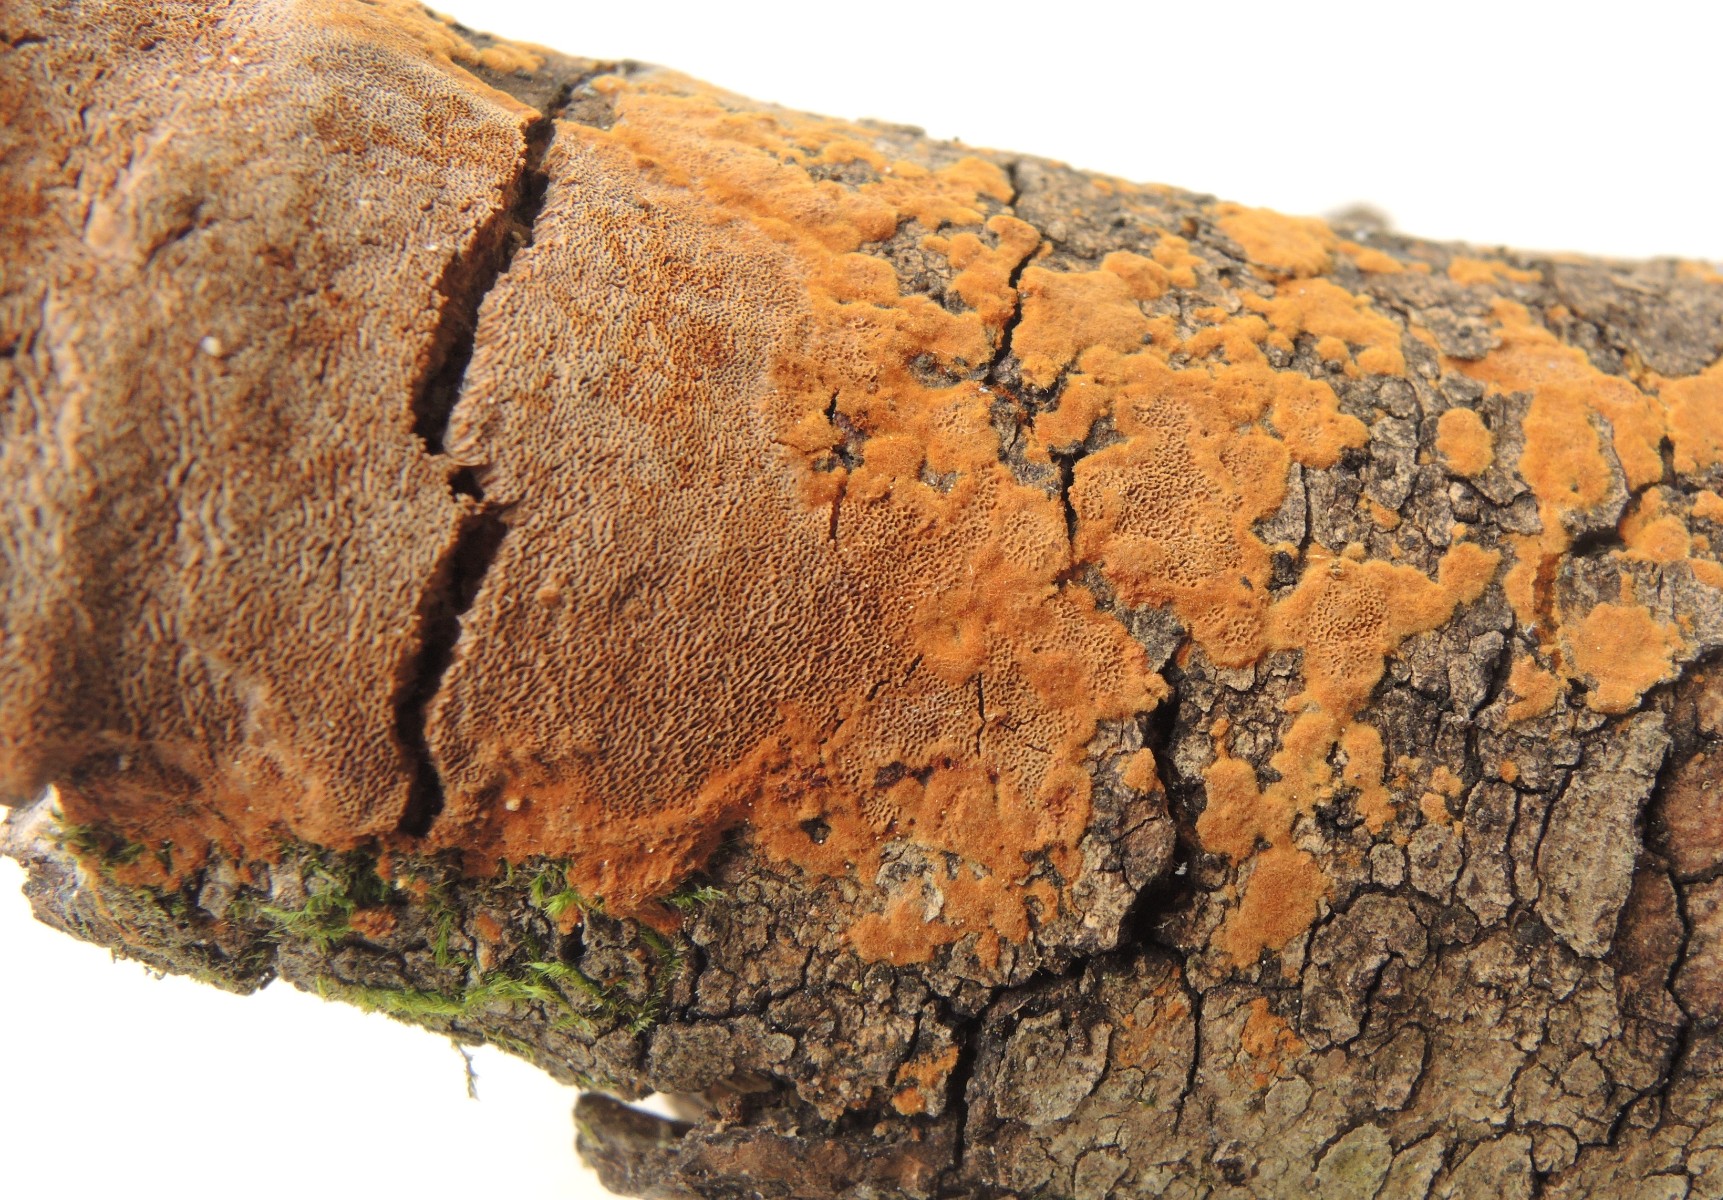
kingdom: Fungi
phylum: Basidiomycota
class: Agaricomycetes
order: Hymenochaetales
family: Hymenochaetaceae
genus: Fuscoporia
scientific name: Fuscoporia ferrea
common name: skorpe-ildporesvamp
